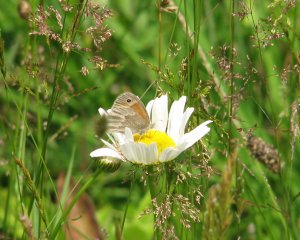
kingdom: Animalia
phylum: Arthropoda
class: Insecta
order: Lepidoptera
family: Nymphalidae
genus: Coenonympha
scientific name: Coenonympha tullia
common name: Large Heath
